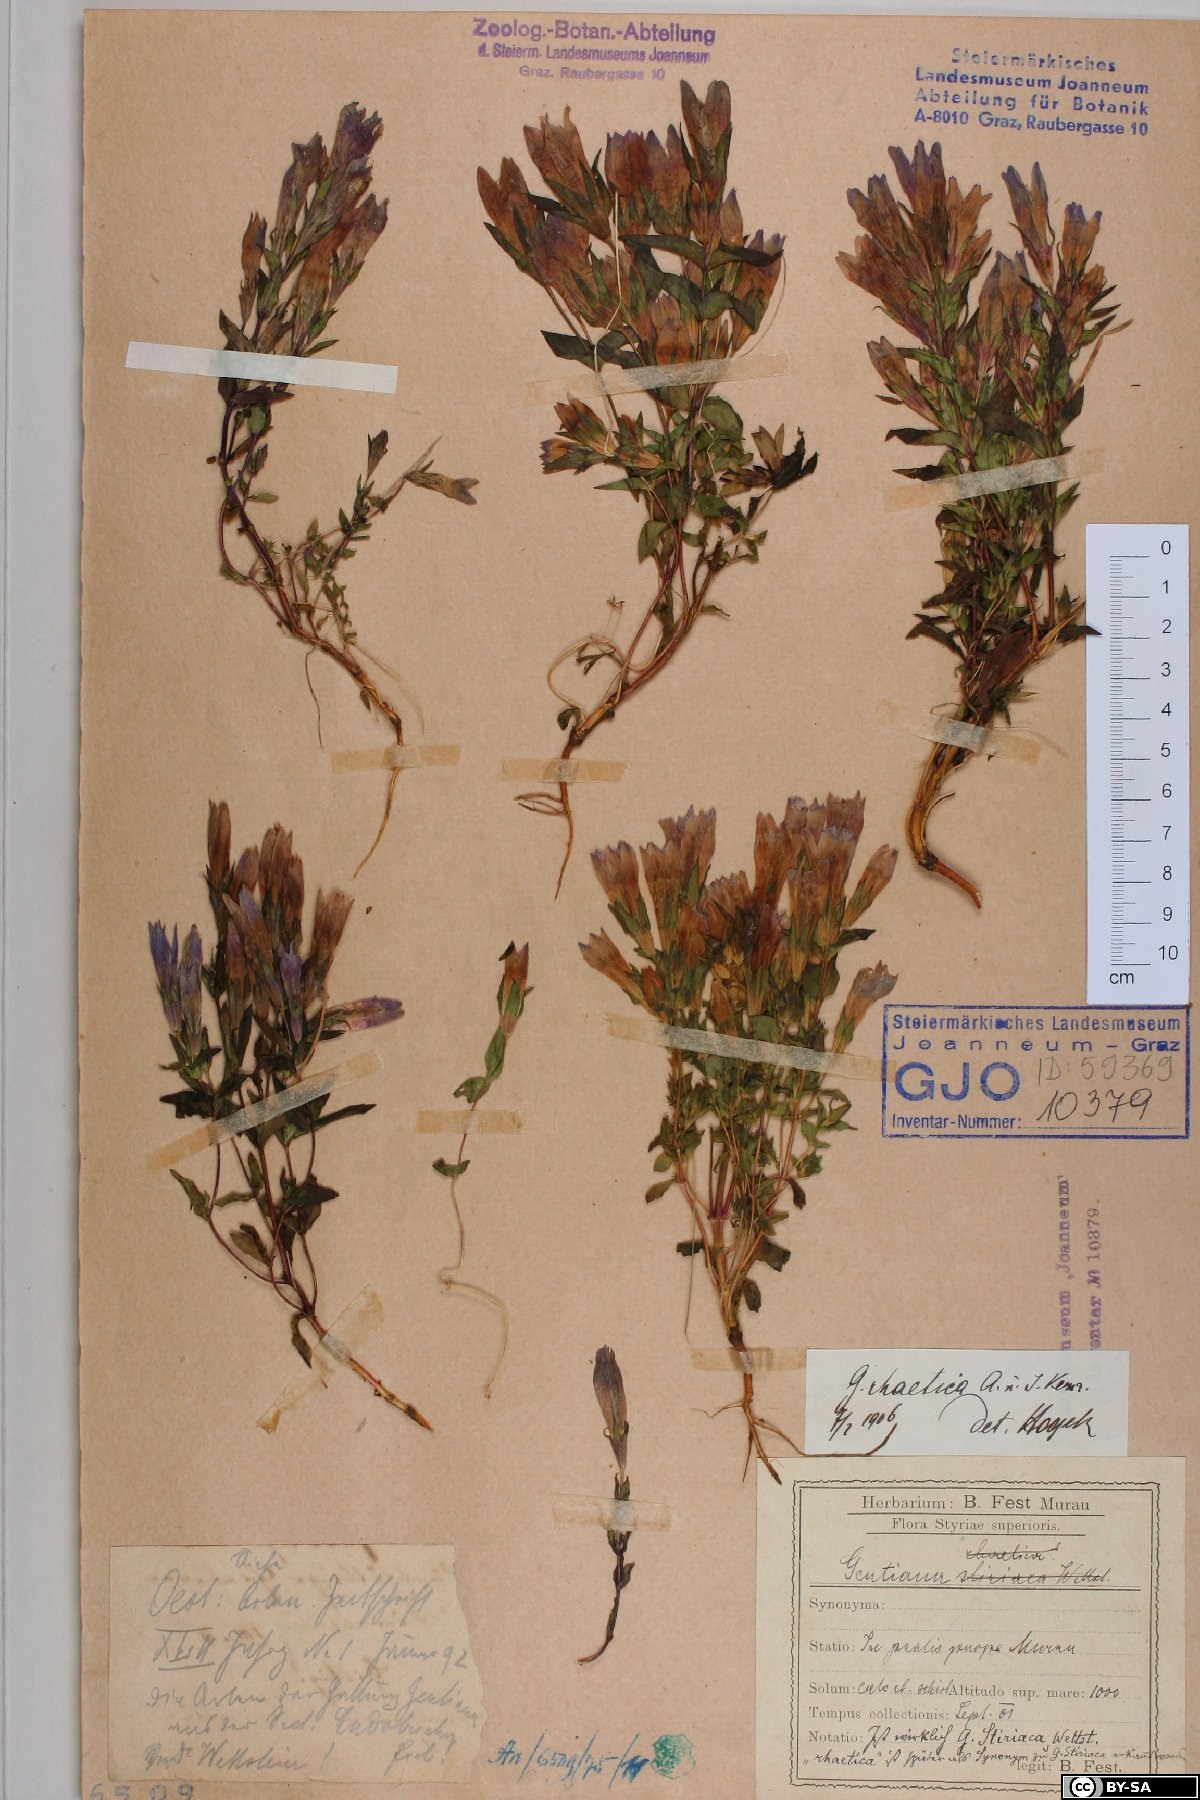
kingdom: Plantae
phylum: Tracheophyta
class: Magnoliopsida
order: Gentianales
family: Gentianaceae
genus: Gentianella
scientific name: Gentianella rhaetica
